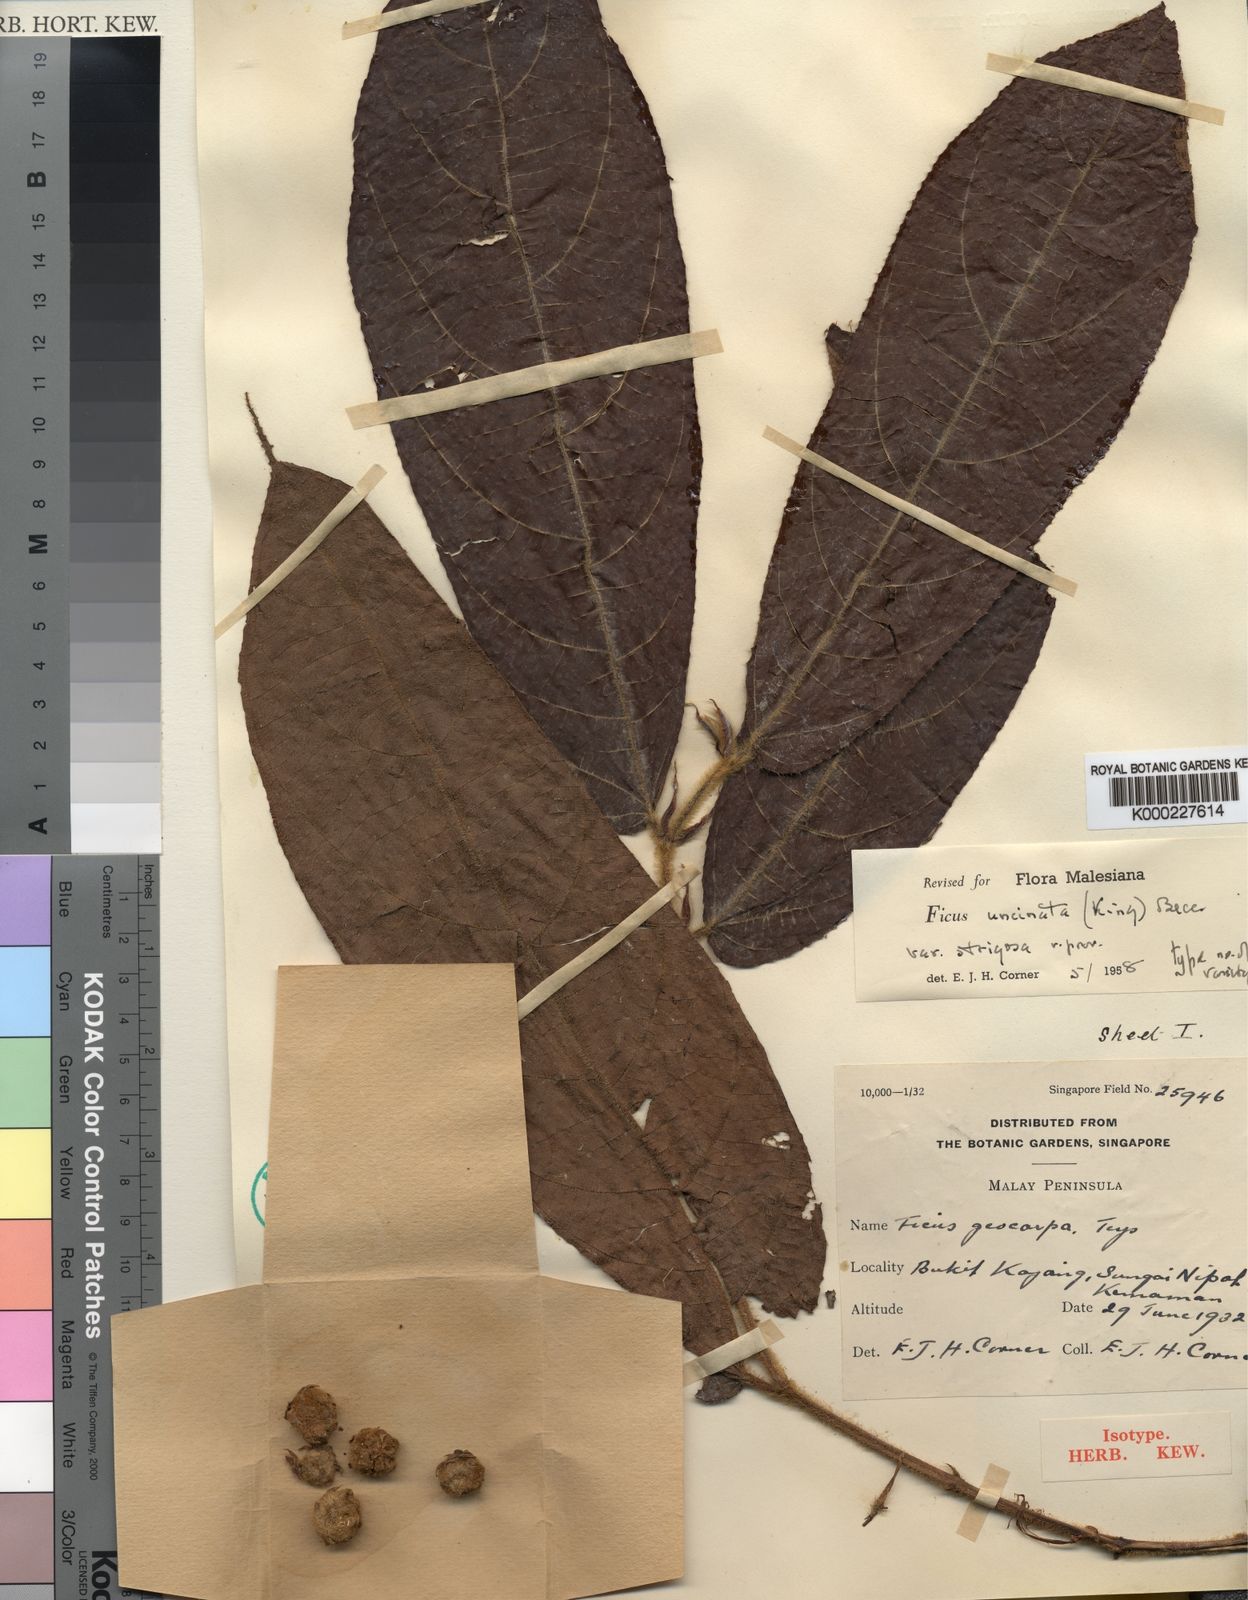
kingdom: Plantae
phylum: Tracheophyta
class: Magnoliopsida
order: Rosales
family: Moraceae
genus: Ficus
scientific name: Ficus malayana
